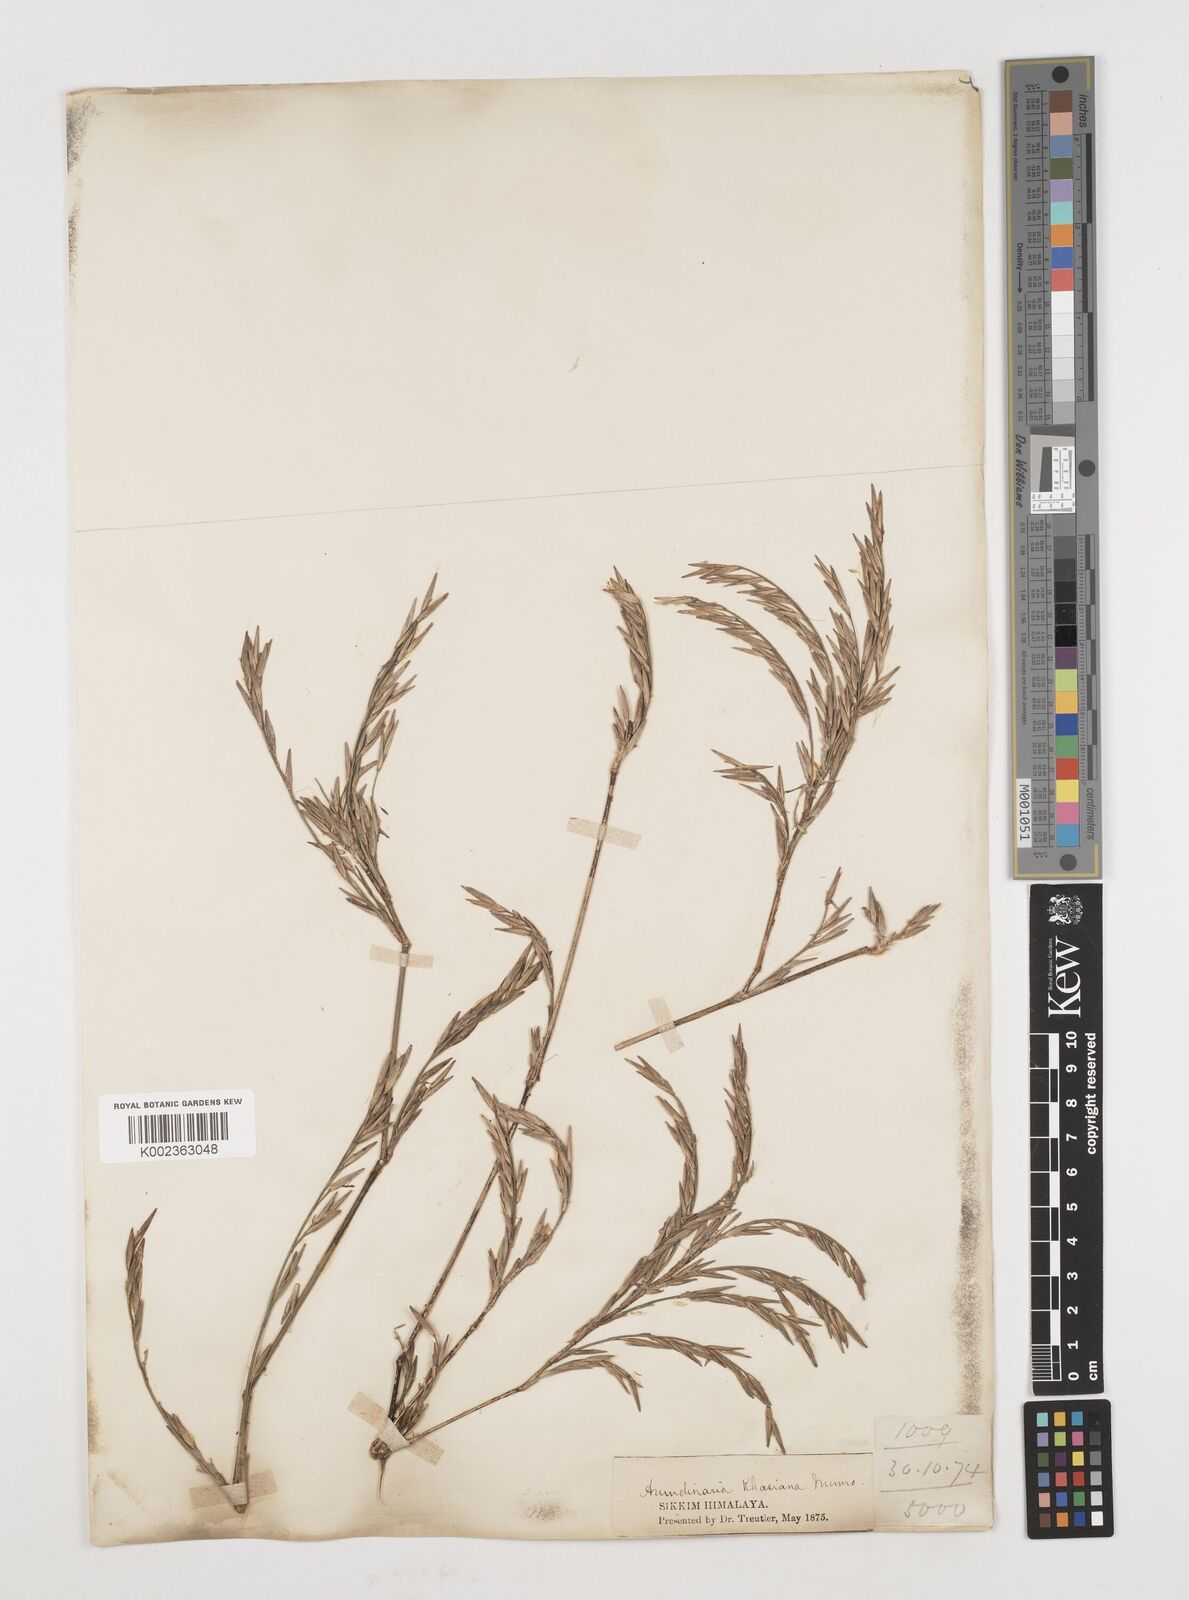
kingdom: Plantae
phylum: Tracheophyta
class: Liliopsida
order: Poales
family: Poaceae
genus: Drepanostachyum
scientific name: Drepanostachyum khasianum
